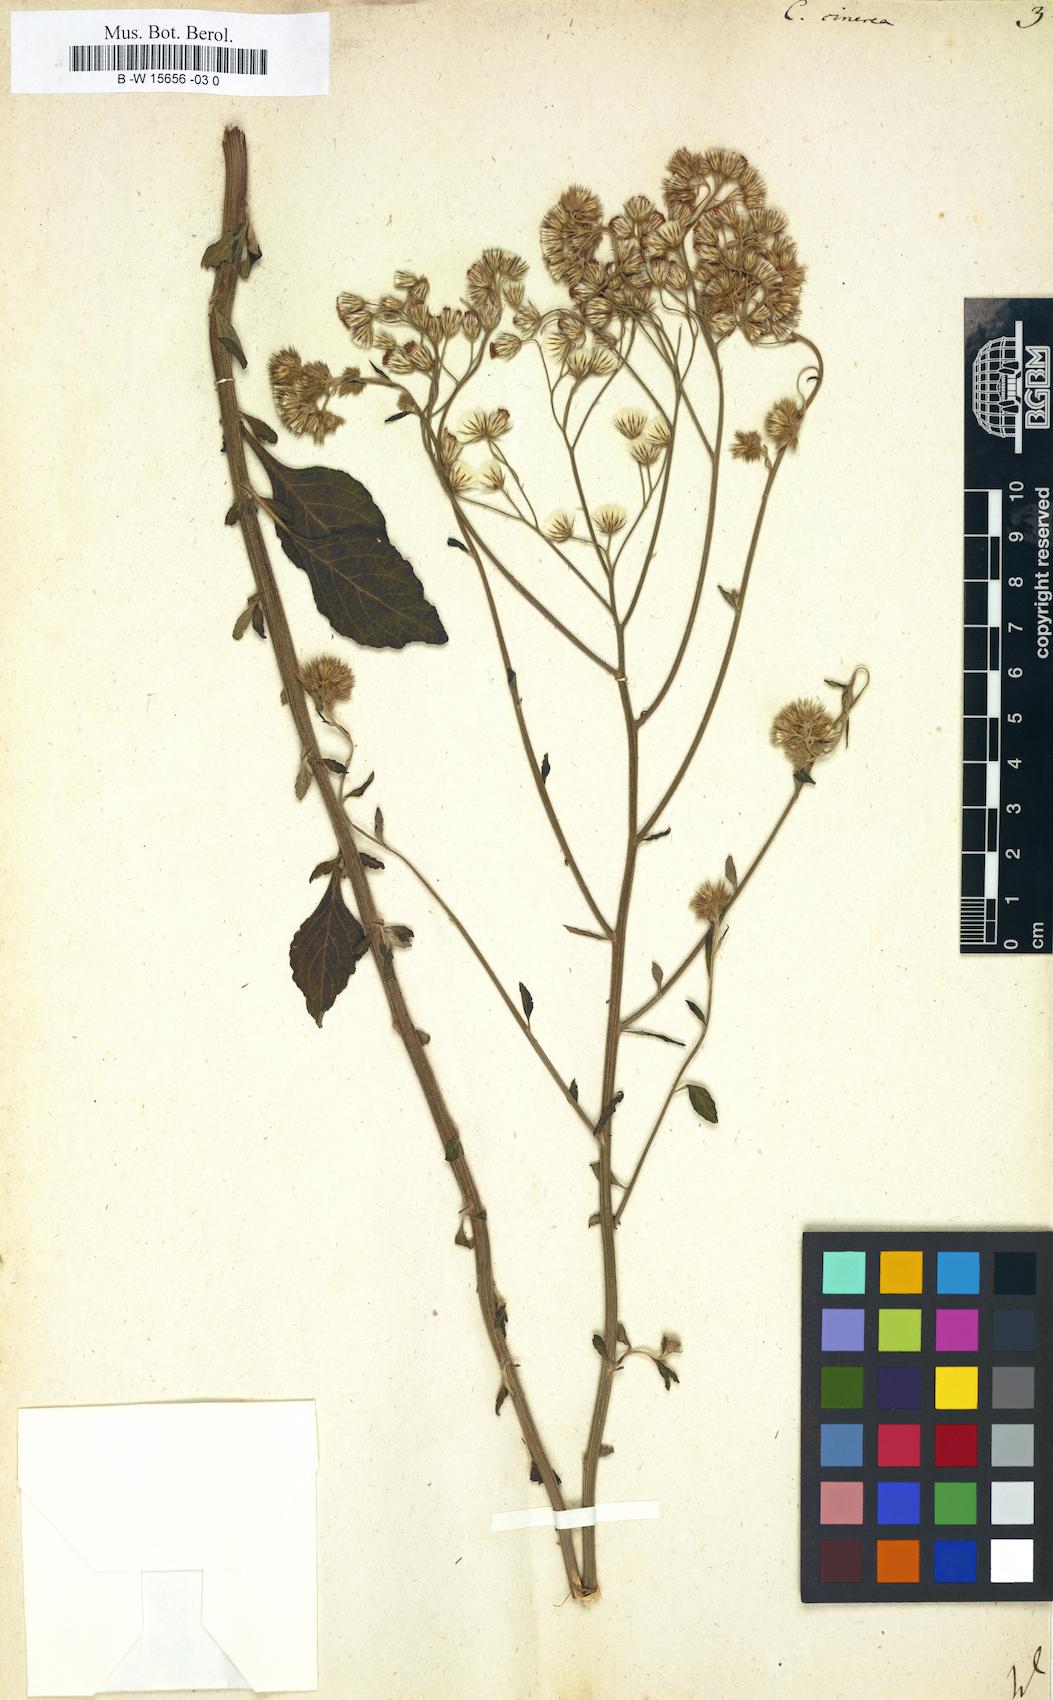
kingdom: Plantae
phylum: Tracheophyta
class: Magnoliopsida
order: Asterales
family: Asteraceae
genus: Cyanthillium
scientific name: Cyanthillium cinereum
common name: Little ironweed
